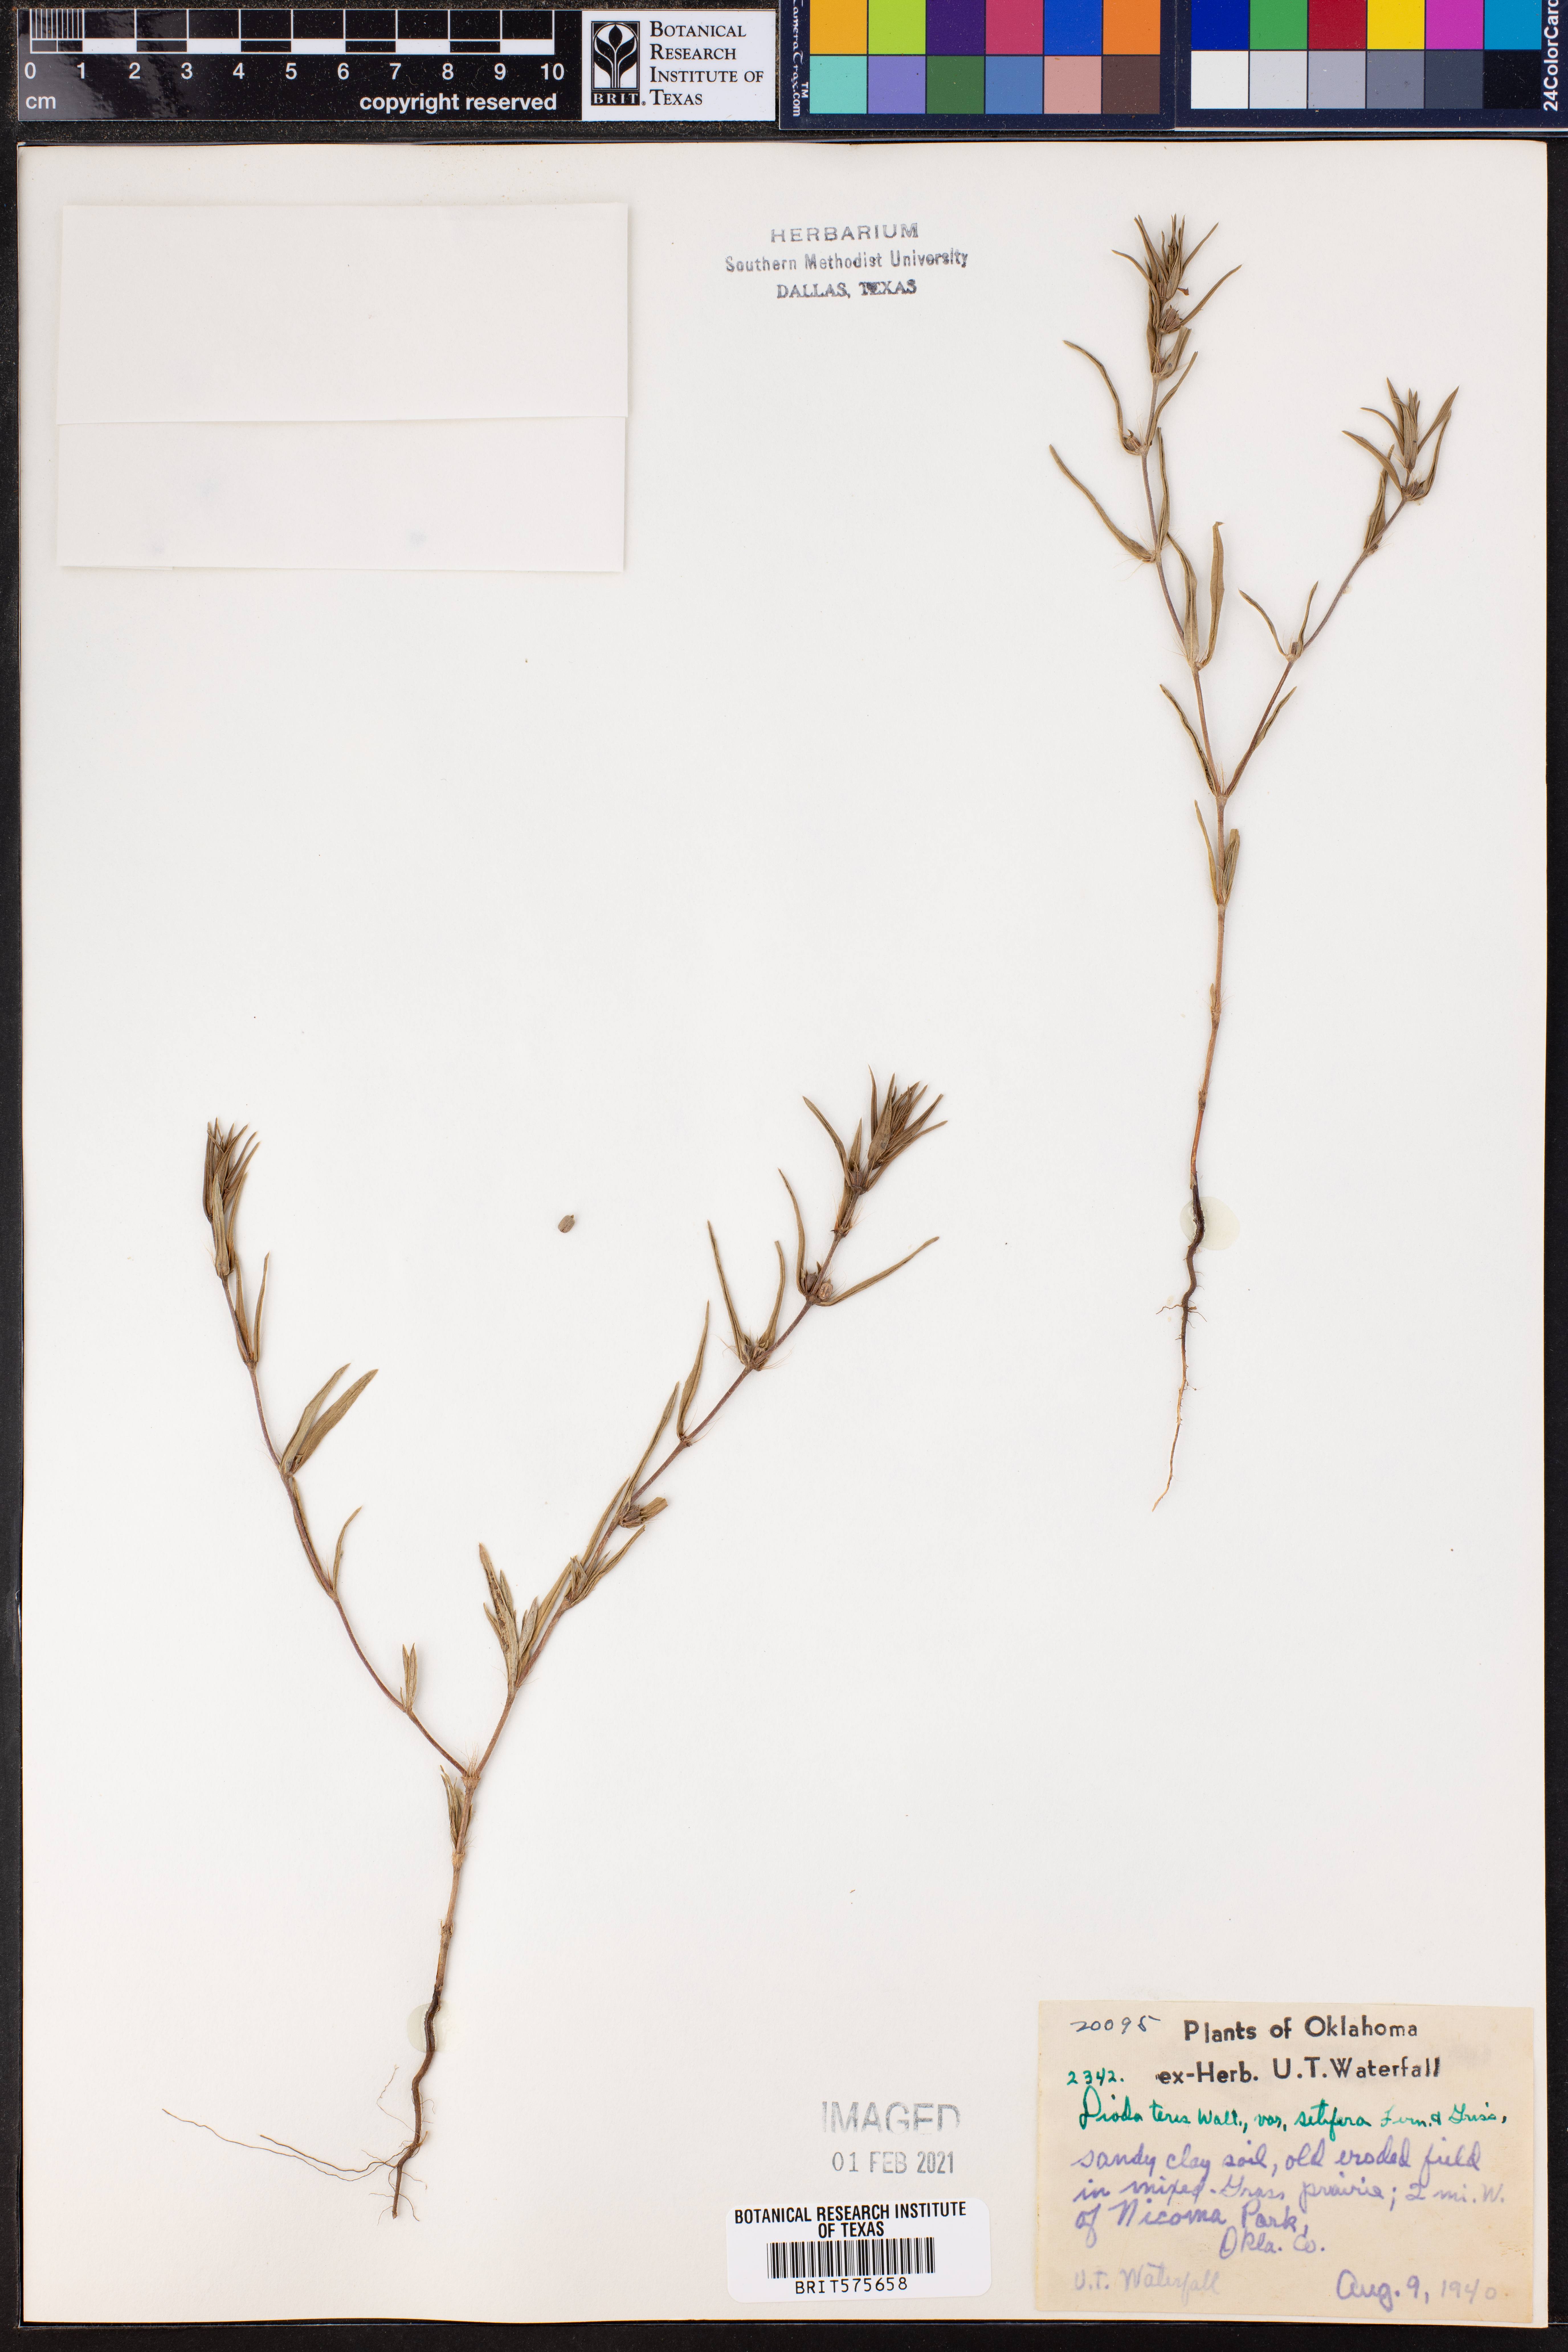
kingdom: Plantae
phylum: Tracheophyta
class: Magnoliopsida
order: Gentianales
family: Rubiaceae
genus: Hexasepalum
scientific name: Hexasepalum teres
